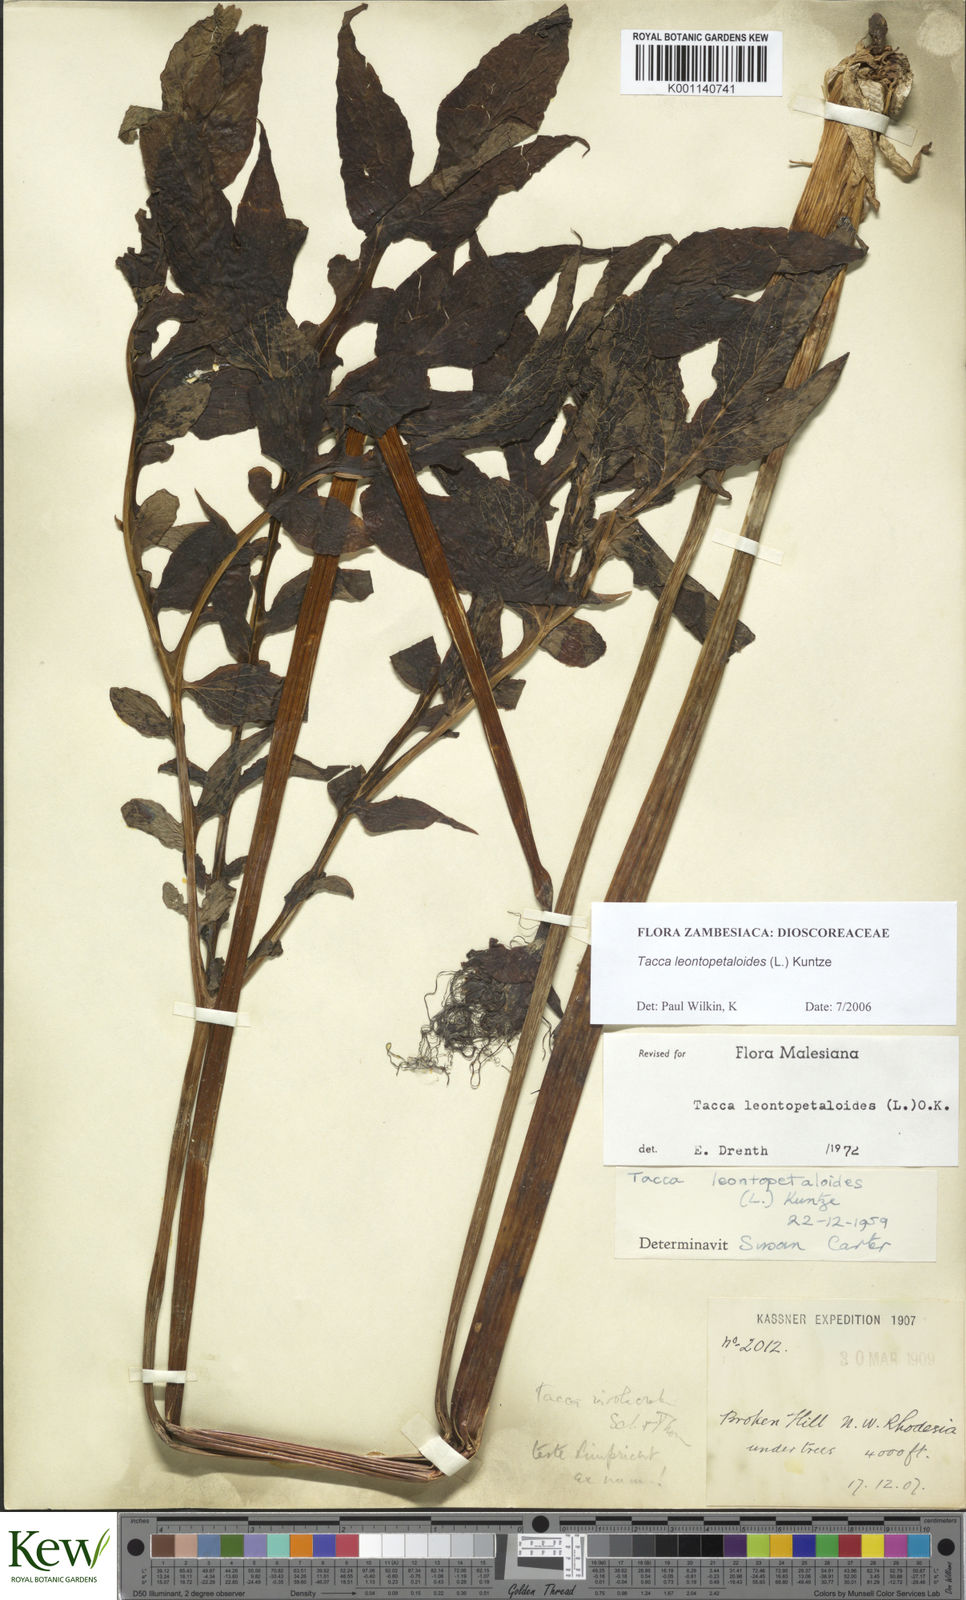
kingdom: Plantae
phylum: Tracheophyta
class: Liliopsida
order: Dioscoreales
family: Dioscoreaceae
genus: Tacca
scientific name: Tacca leontopetaloides
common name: Arrowroot
